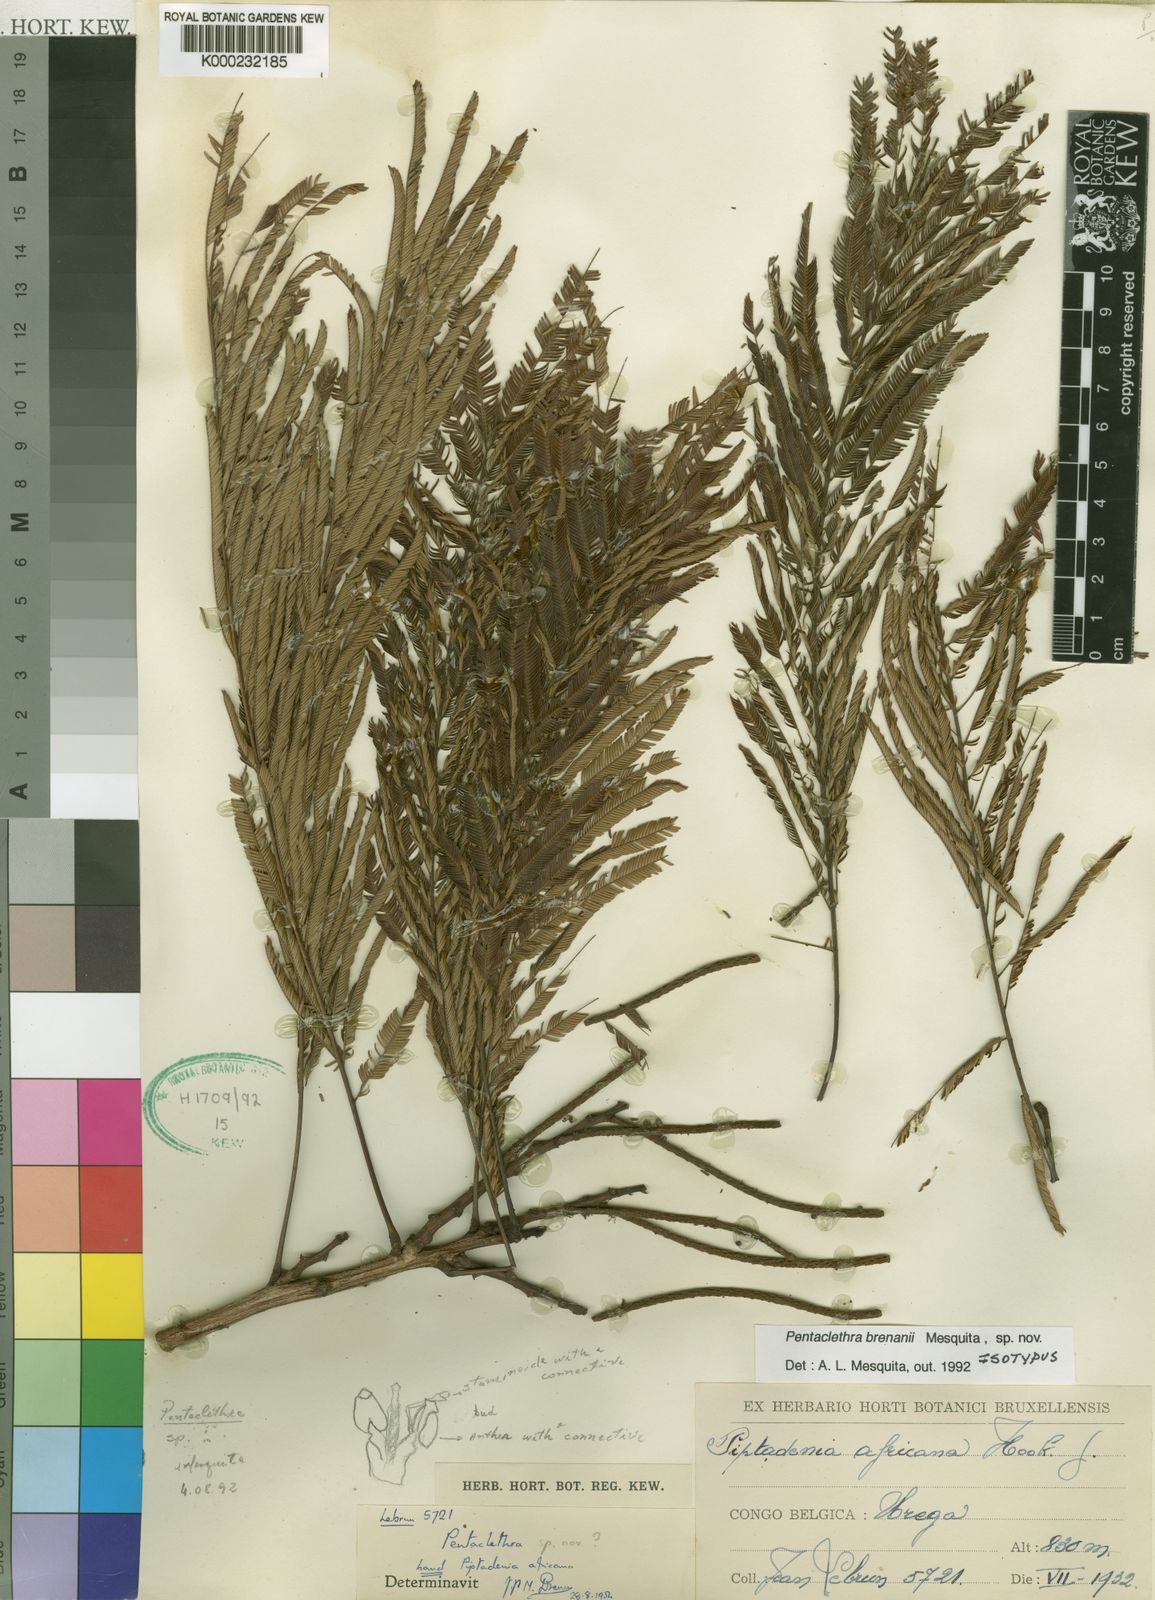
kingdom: Plantae
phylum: Tracheophyta
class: Magnoliopsida
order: Fabales
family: Fabaceae
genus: Pentaclethra
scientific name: Pentaclethra
